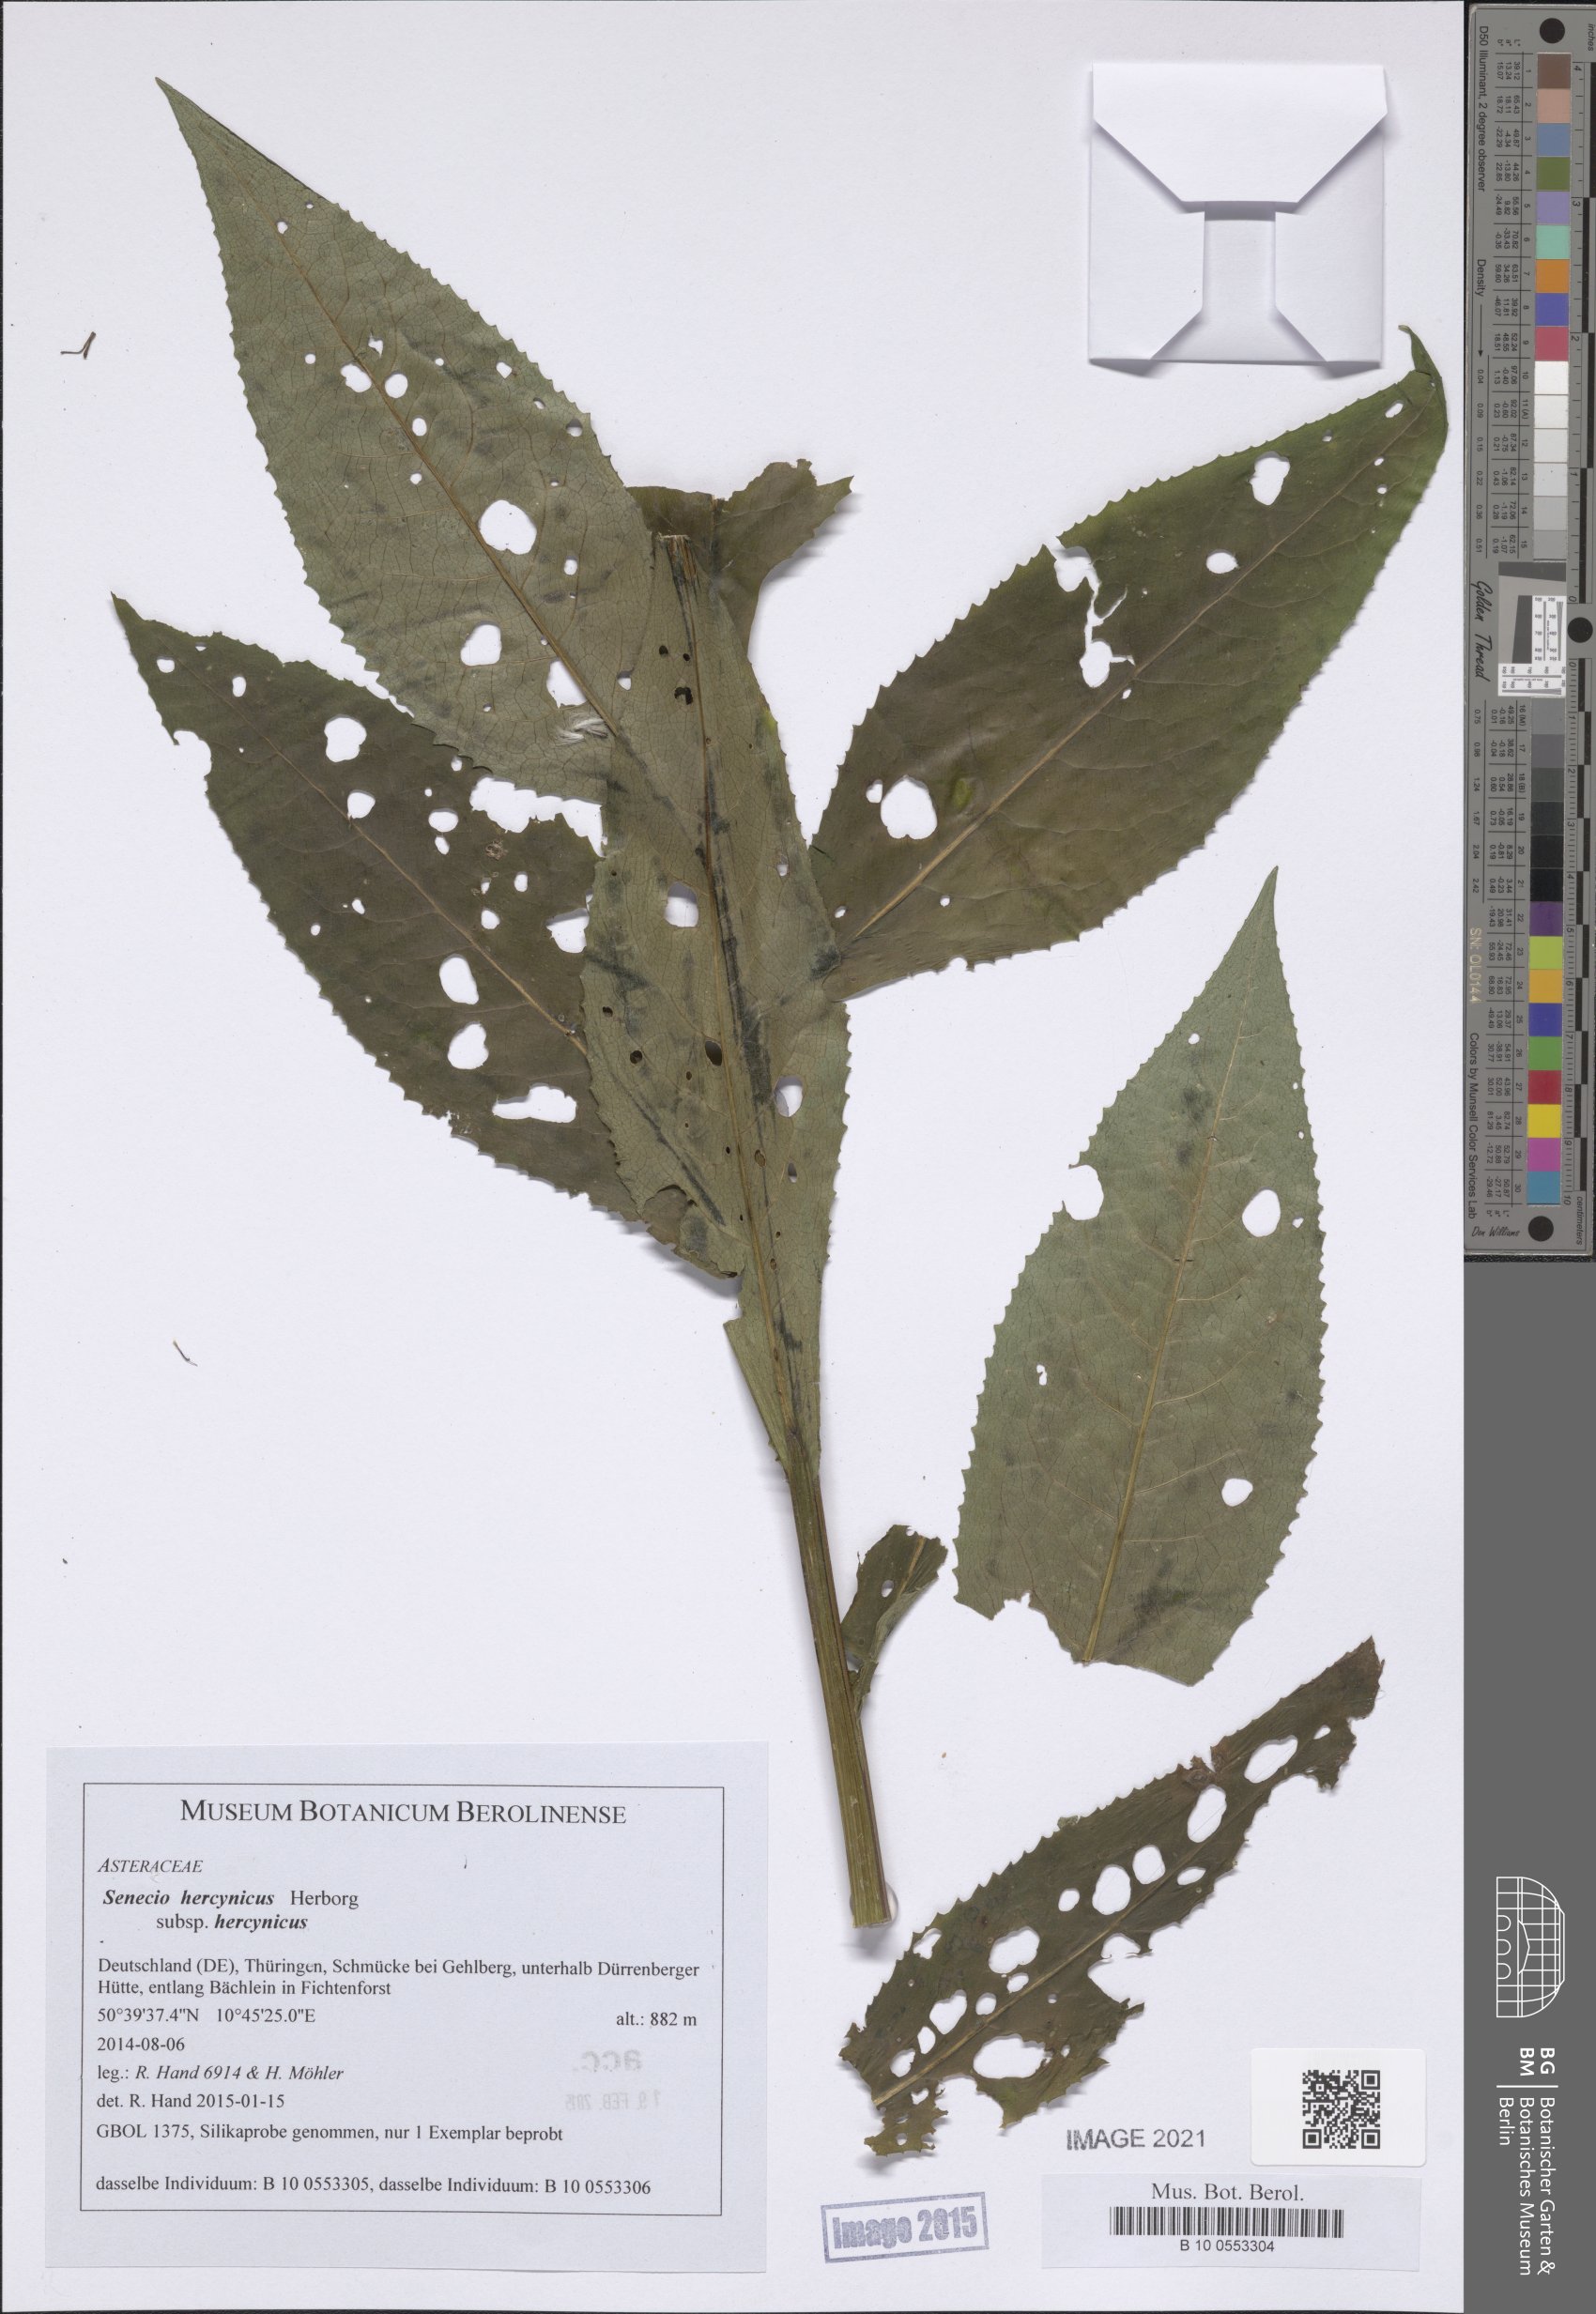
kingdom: Plantae
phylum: Tracheophyta
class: Magnoliopsida
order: Asterales
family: Asteraceae
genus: Senecio
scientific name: Senecio hercynicus
